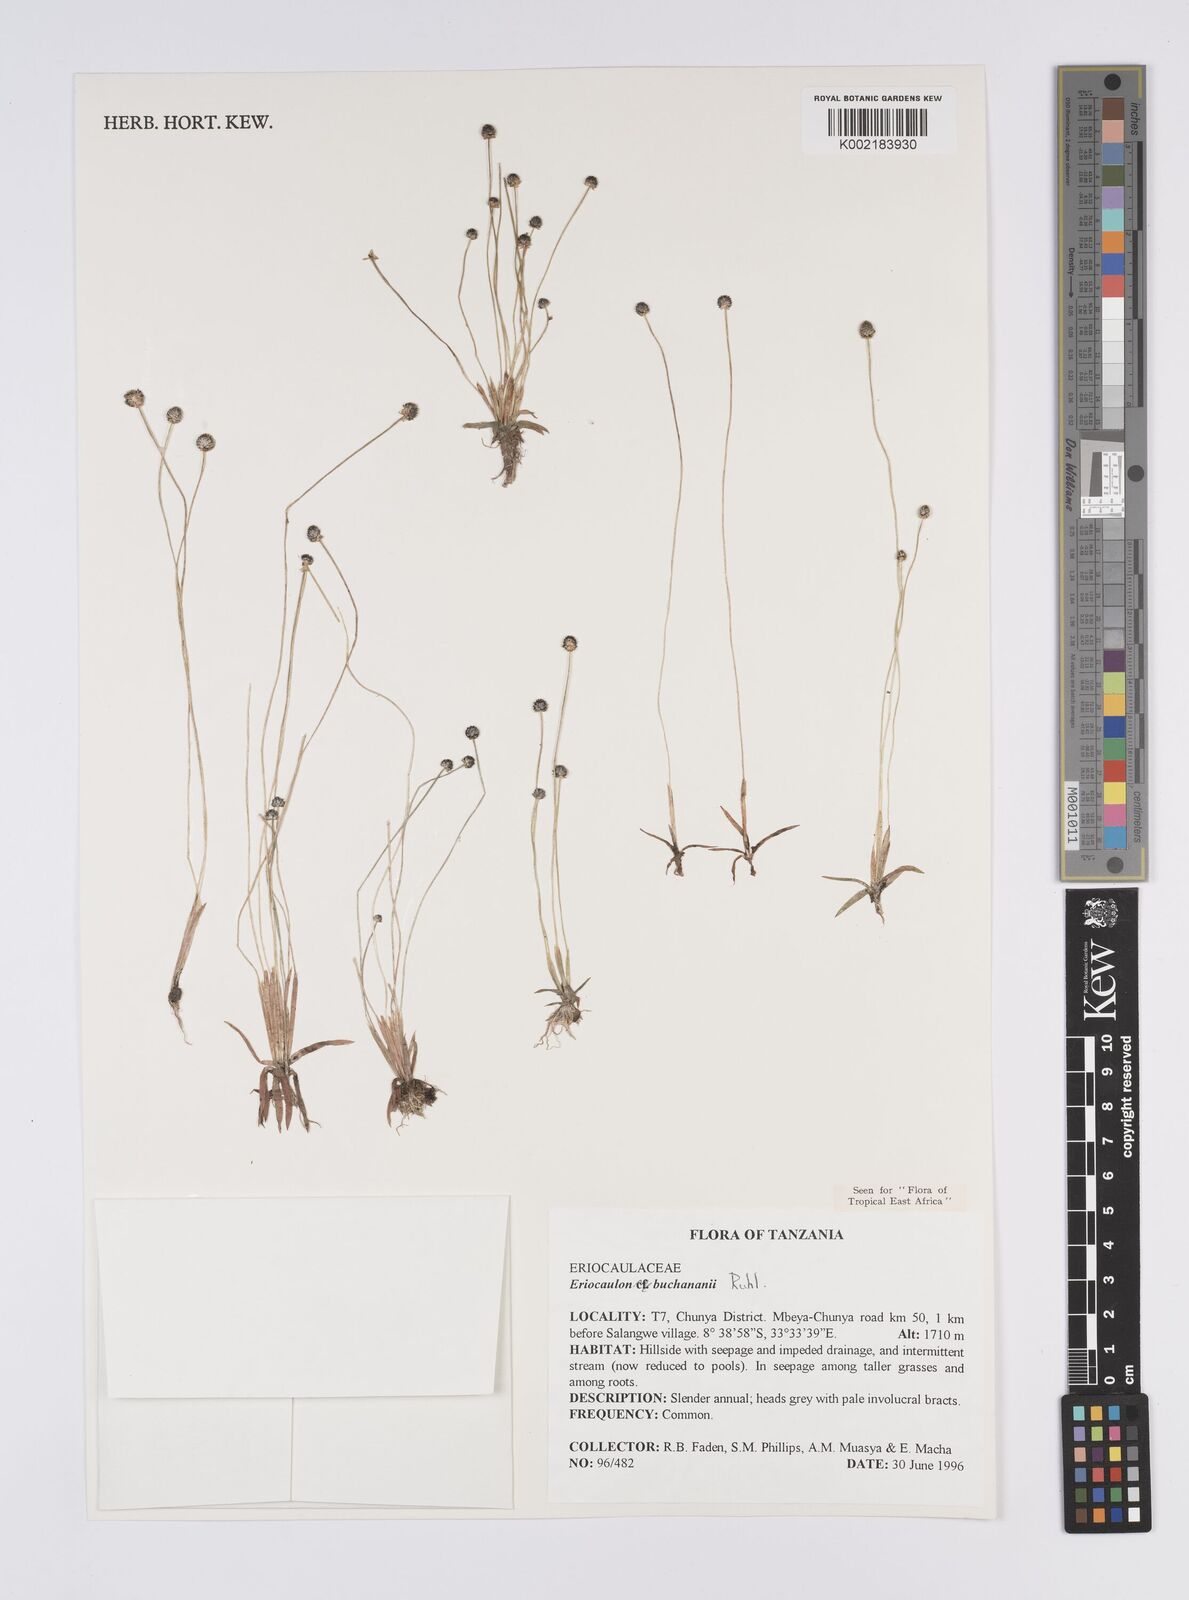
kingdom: Plantae
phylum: Tracheophyta
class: Liliopsida
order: Poales
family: Eriocaulaceae
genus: Eriocaulon
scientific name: Eriocaulon buchananii
